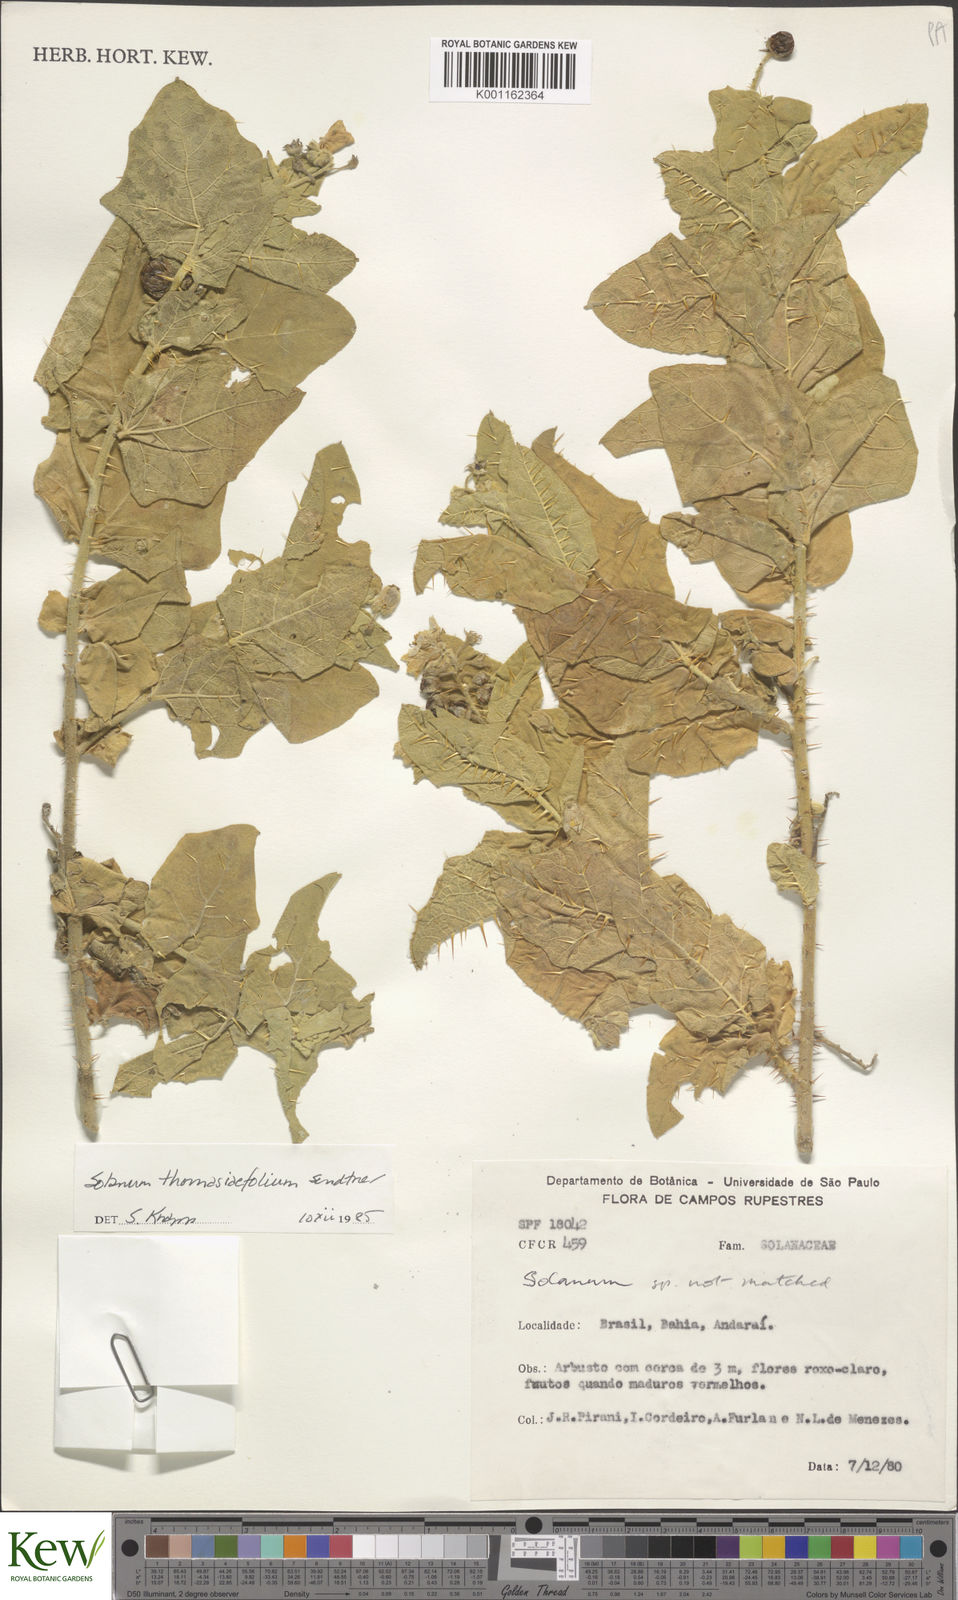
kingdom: Plantae
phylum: Tracheophyta
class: Magnoliopsida
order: Solanales
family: Solanaceae
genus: Solanum
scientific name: Solanum thomasiifolium
